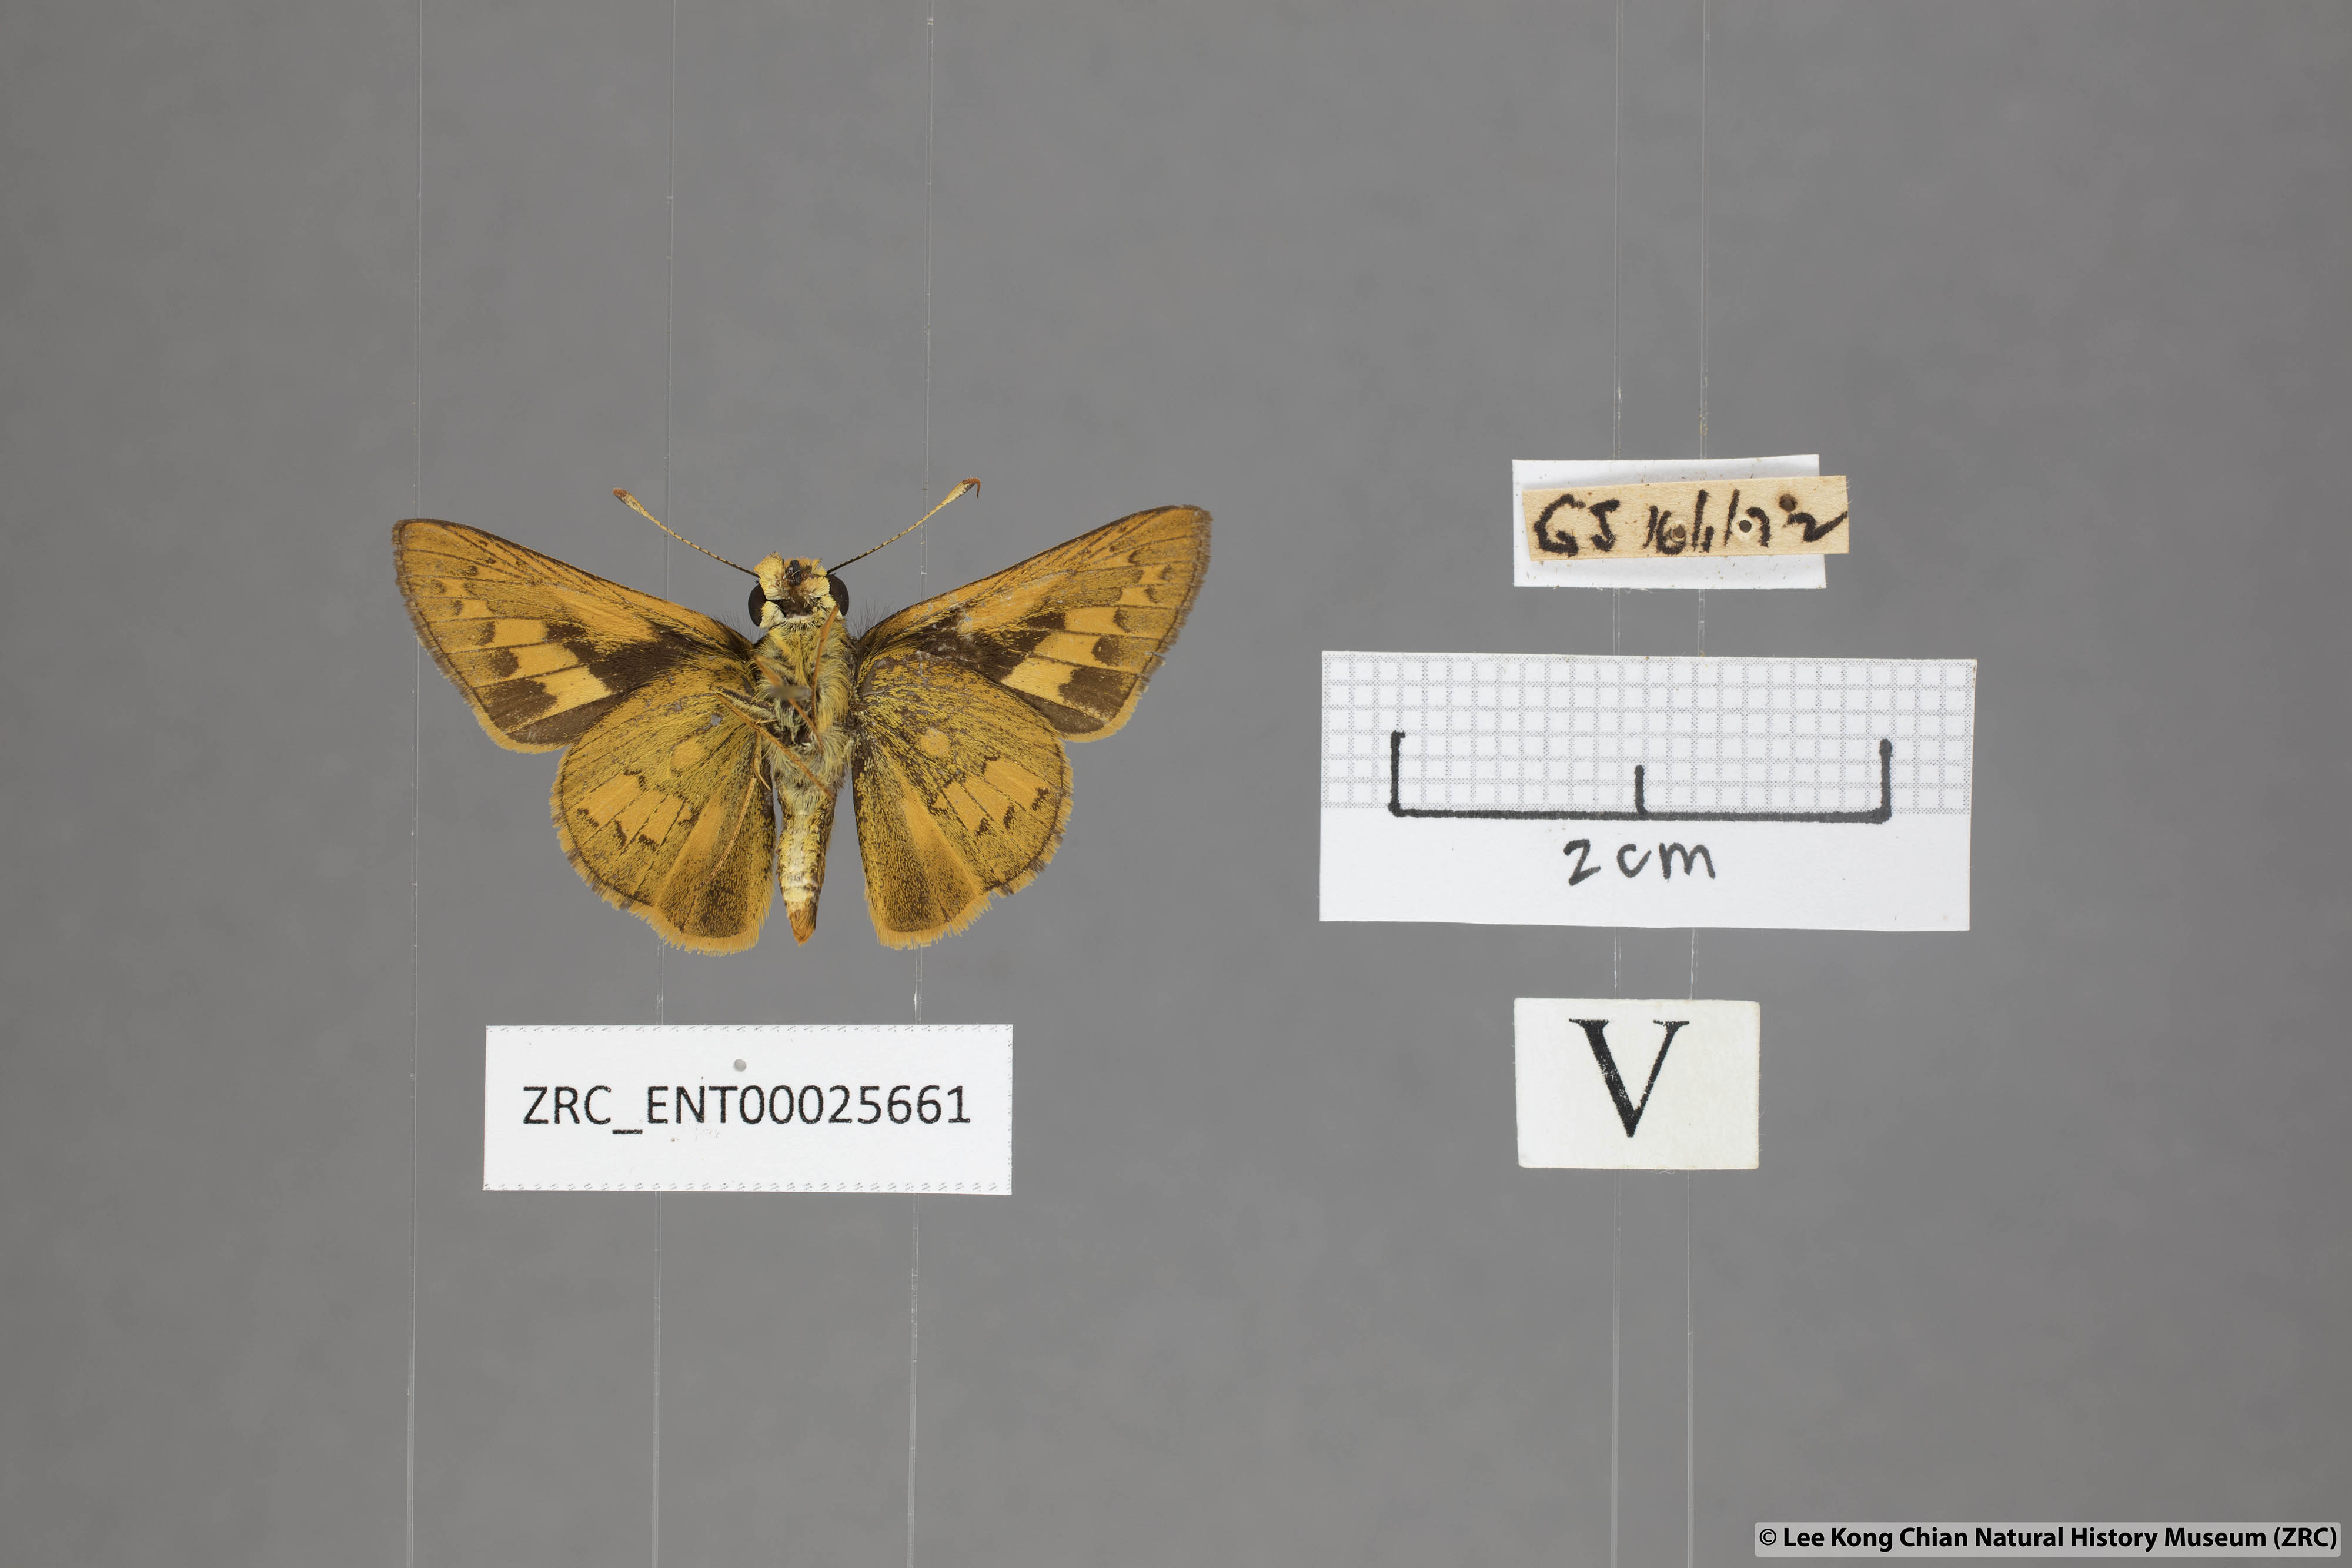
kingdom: Animalia
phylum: Arthropoda
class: Insecta
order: Lepidoptera
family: Hesperiidae
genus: Telicota
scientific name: Telicota colon
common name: Pale palm dart
